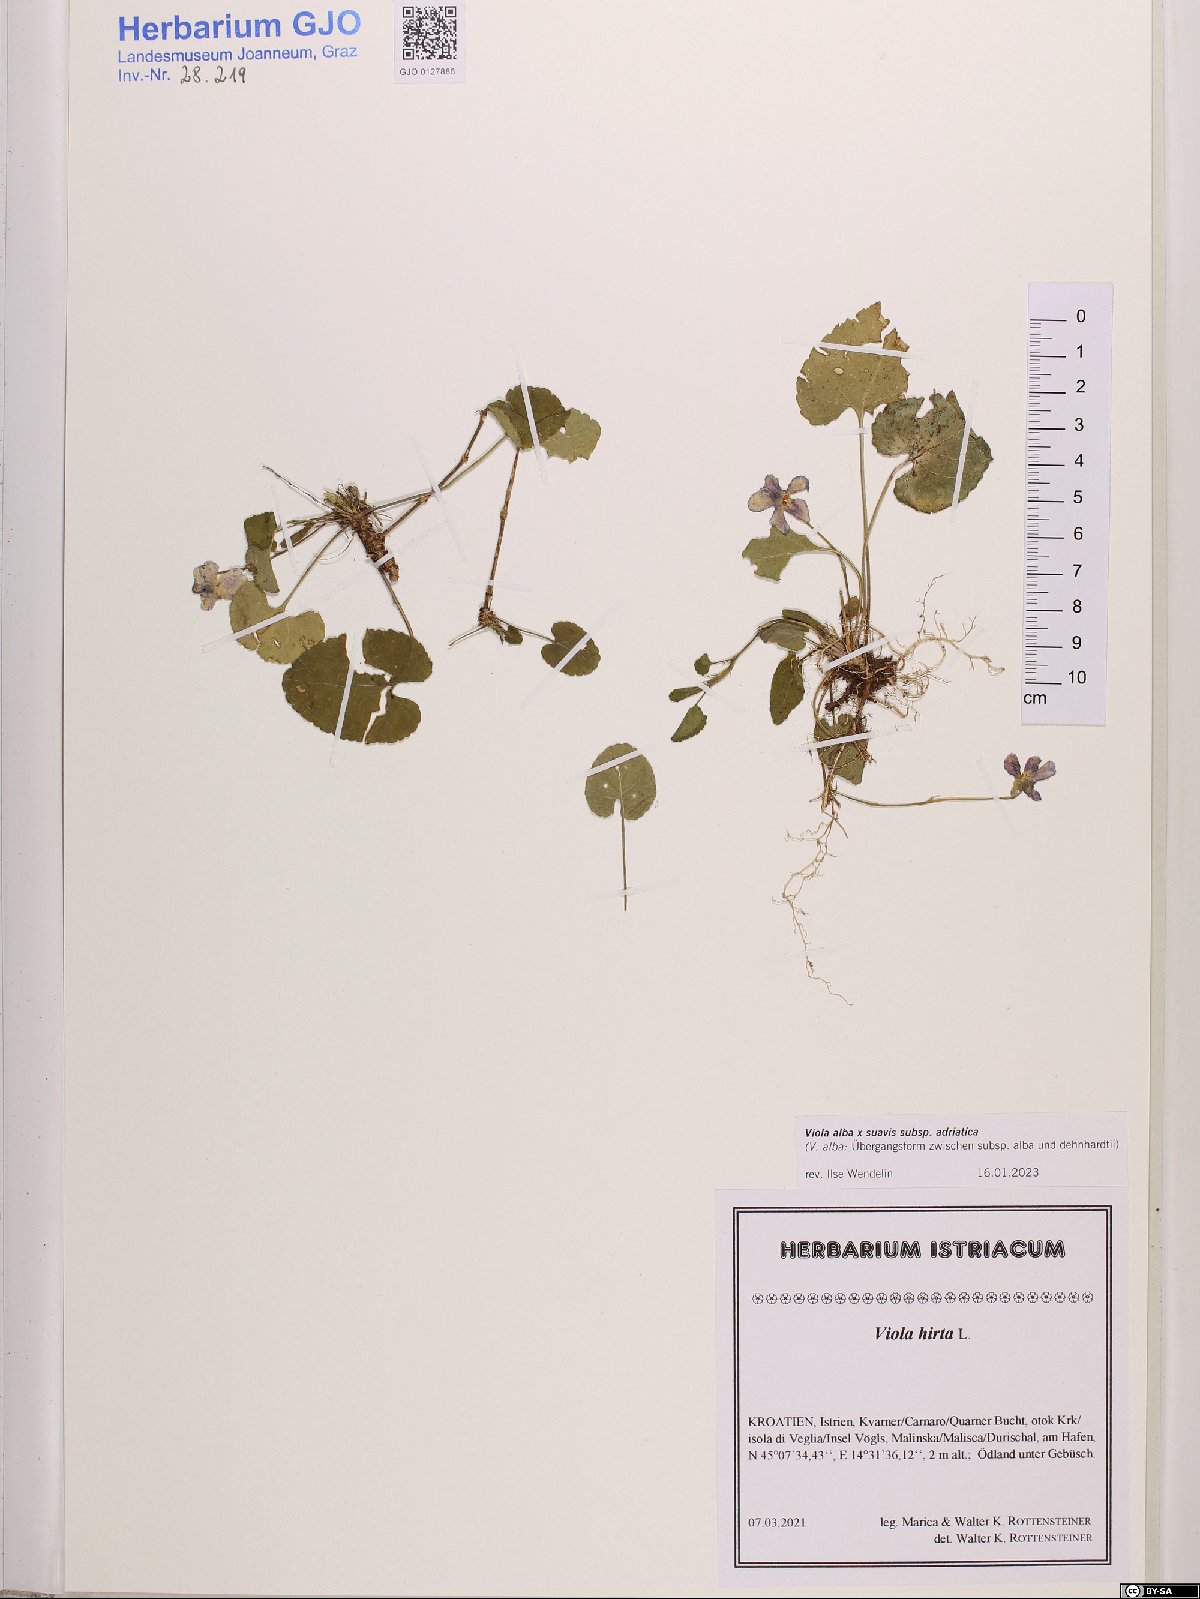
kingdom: Plantae
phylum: Tracheophyta
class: Magnoliopsida
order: Malpighiales
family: Violaceae
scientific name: Violaceae
